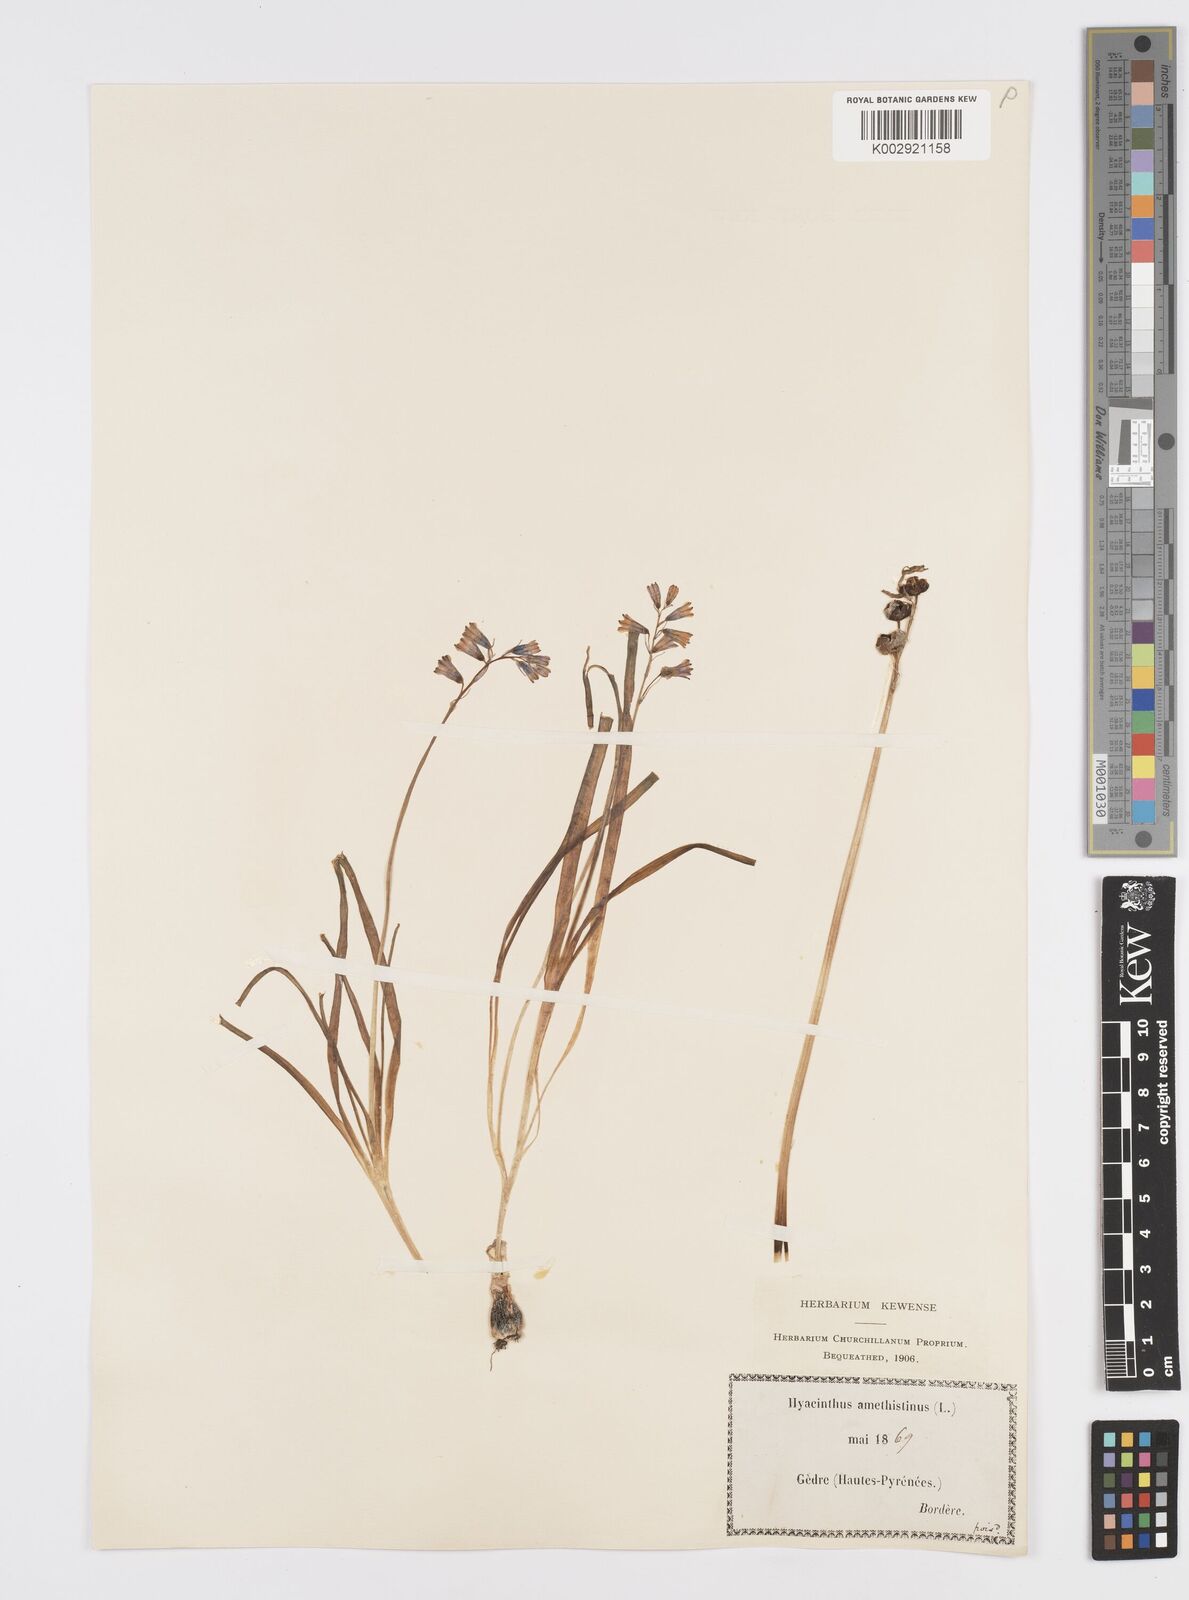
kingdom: Plantae
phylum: Tracheophyta
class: Liliopsida
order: Asparagales
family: Asparagaceae
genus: Brimeura
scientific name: Brimeura amethystina
